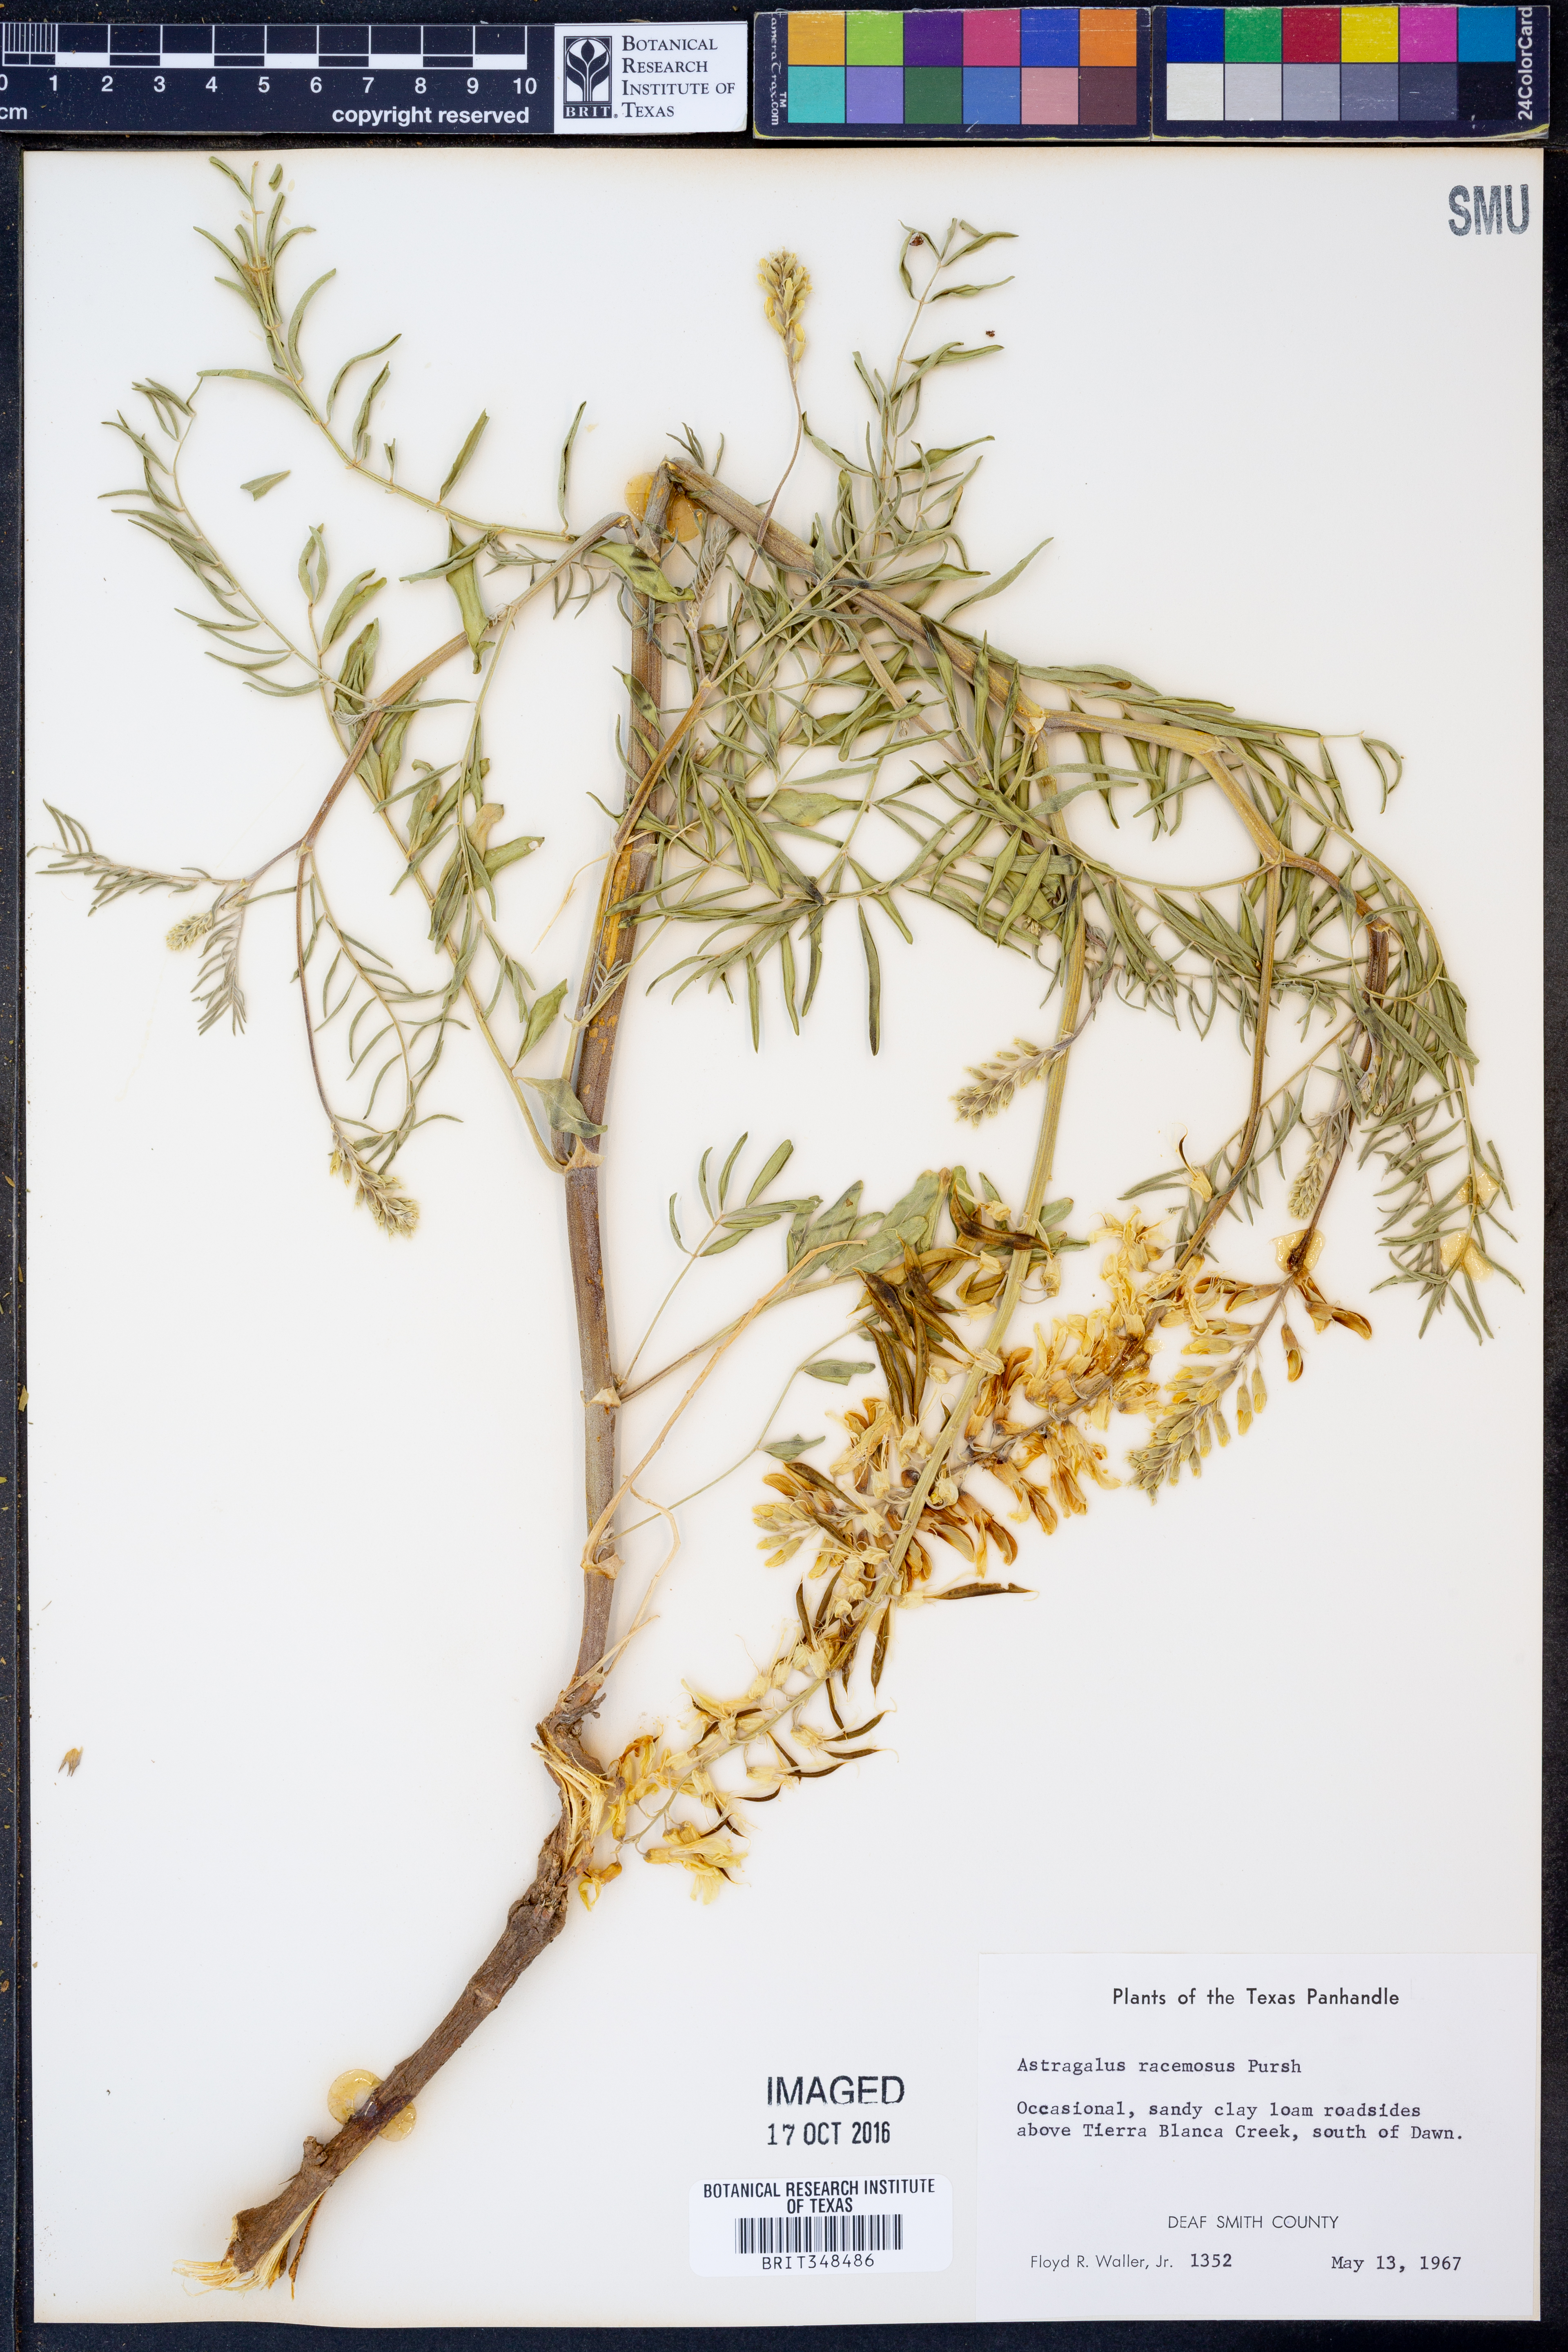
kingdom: Plantae
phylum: Tracheophyta
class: Magnoliopsida
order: Fabales
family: Fabaceae
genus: Astragalus
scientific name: Astragalus racemosus
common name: Alkali milk-vetch
